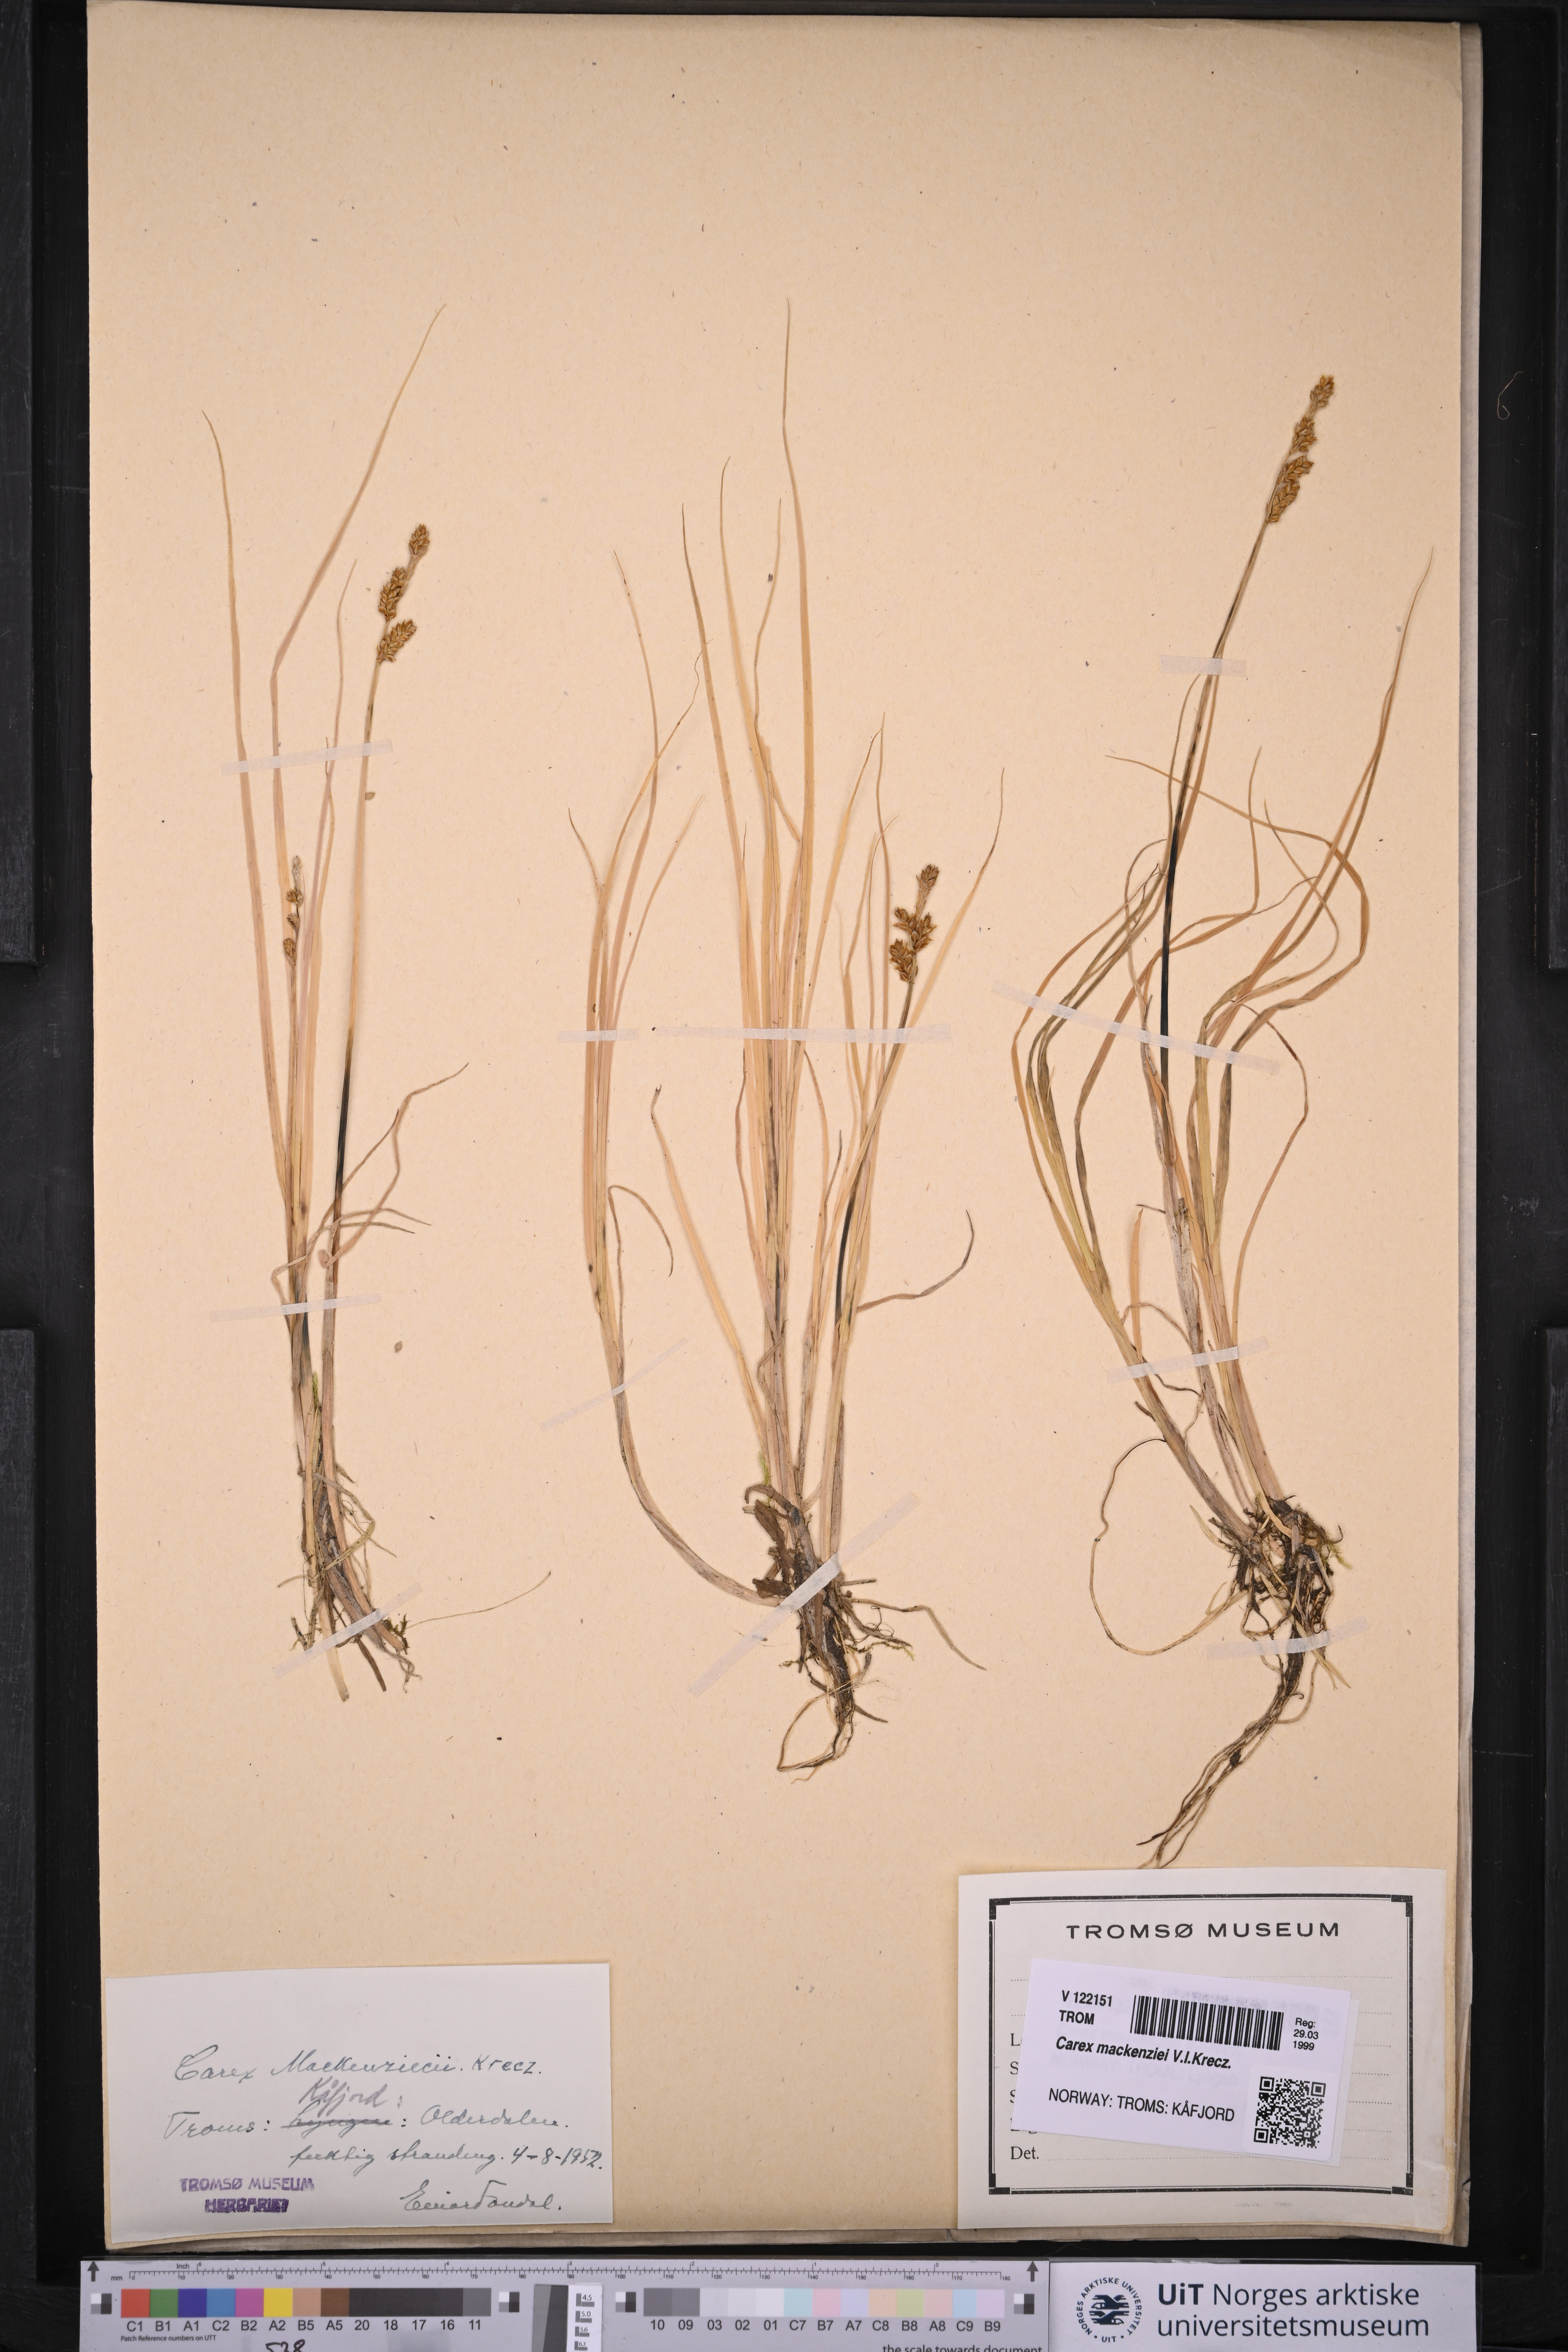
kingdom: Plantae
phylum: Tracheophyta
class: Liliopsida
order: Poales
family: Cyperaceae
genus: Carex
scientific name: Carex mackenziei
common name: Mackenzie's sedge
